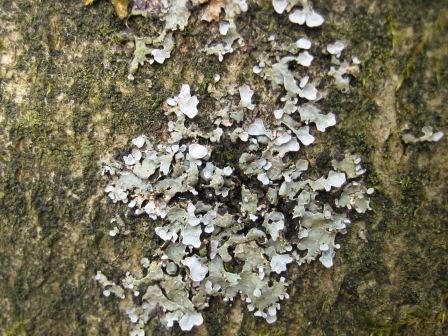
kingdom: Fungi
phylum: Ascomycota
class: Lecanoromycetes
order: Lecanorales
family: Parmeliaceae
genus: Parmelia
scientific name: Parmelia sulcata
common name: rynket skållav
